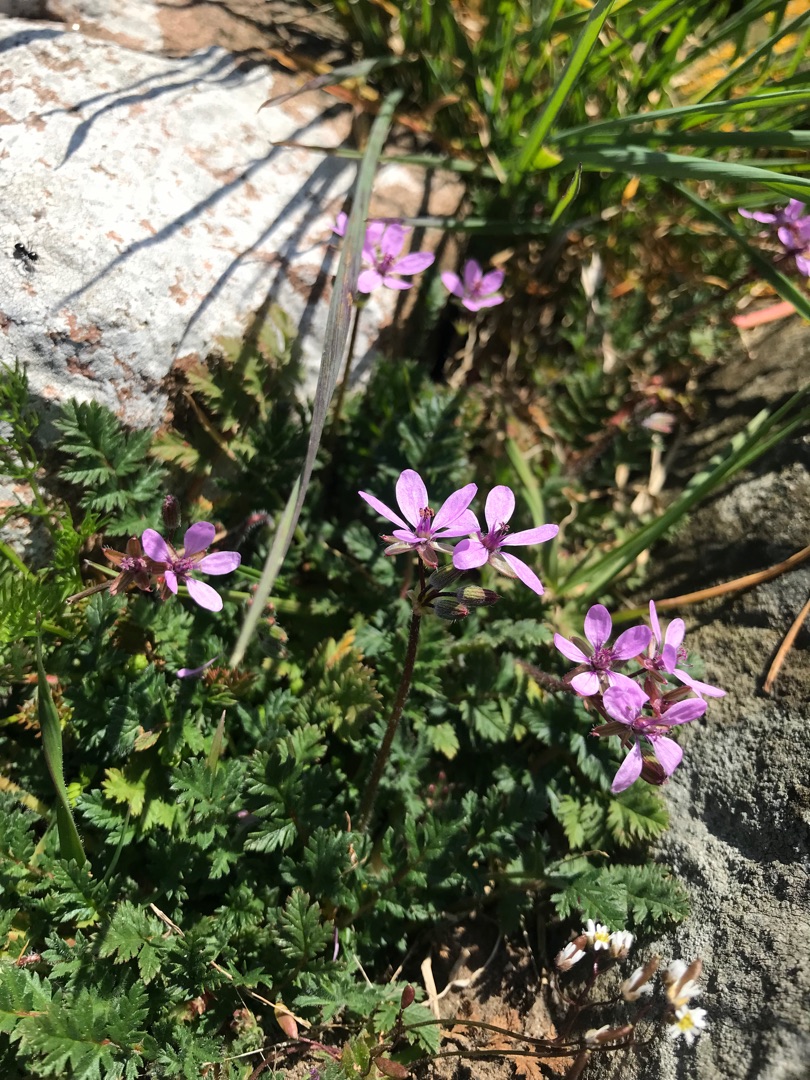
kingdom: Plantae
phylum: Tracheophyta
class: Magnoliopsida
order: Geraniales
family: Geraniaceae
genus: Erodium
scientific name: Erodium cicutarium
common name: Hejrenæb
